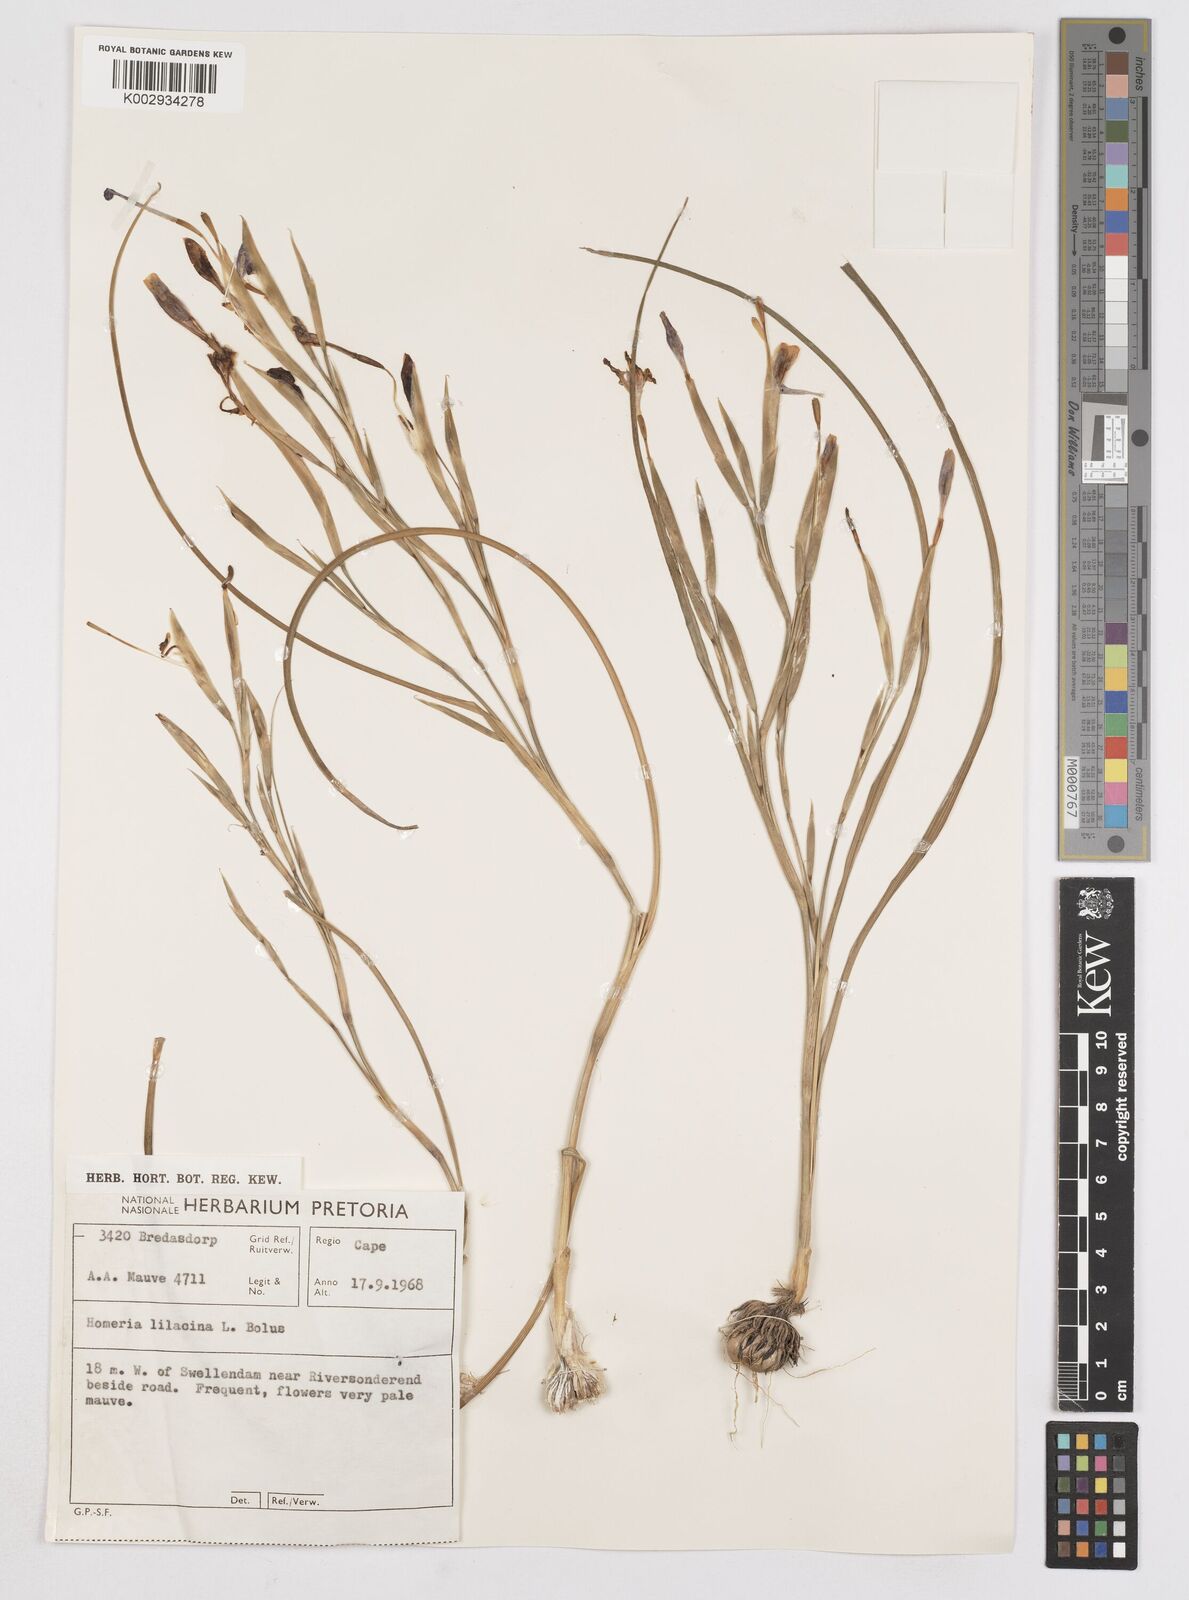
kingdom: Plantae
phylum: Tracheophyta
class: Liliopsida
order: Asparagales
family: Iridaceae
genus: Moraea
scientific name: Moraea
